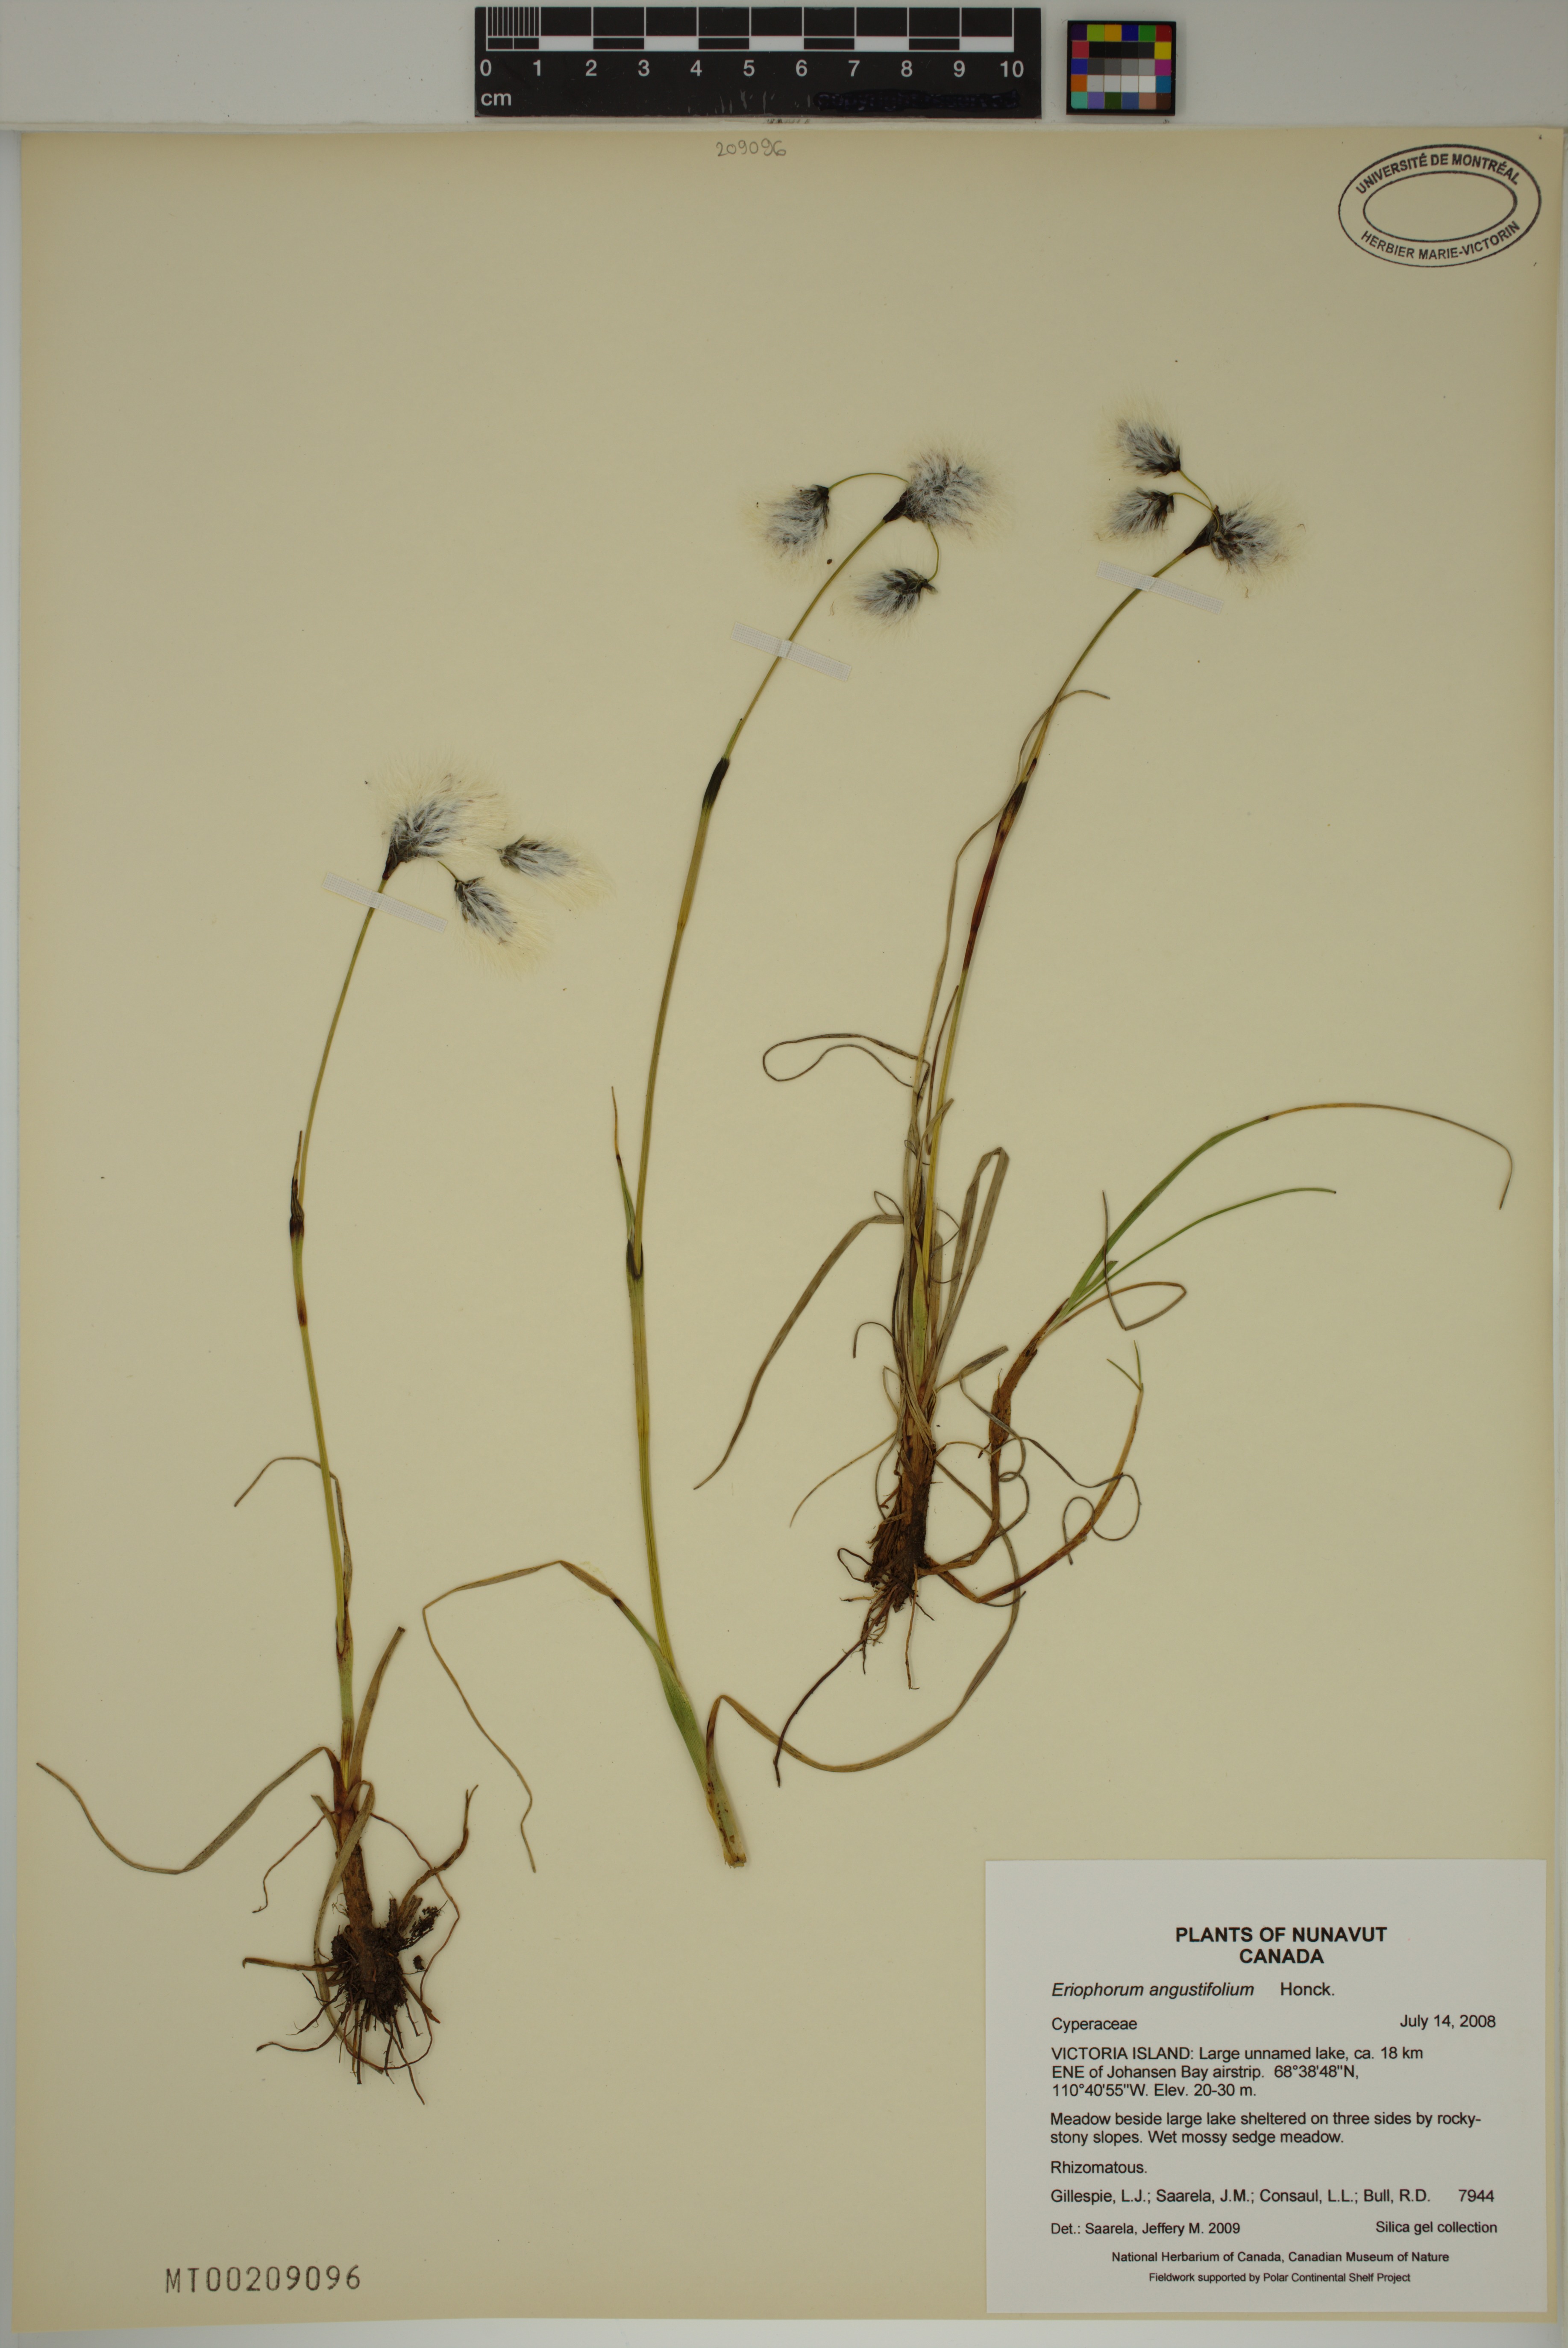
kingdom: Plantae
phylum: Tracheophyta
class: Liliopsida
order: Poales
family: Cyperaceae
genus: Eriophorum
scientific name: Eriophorum angustifolium
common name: Common cottongrass
